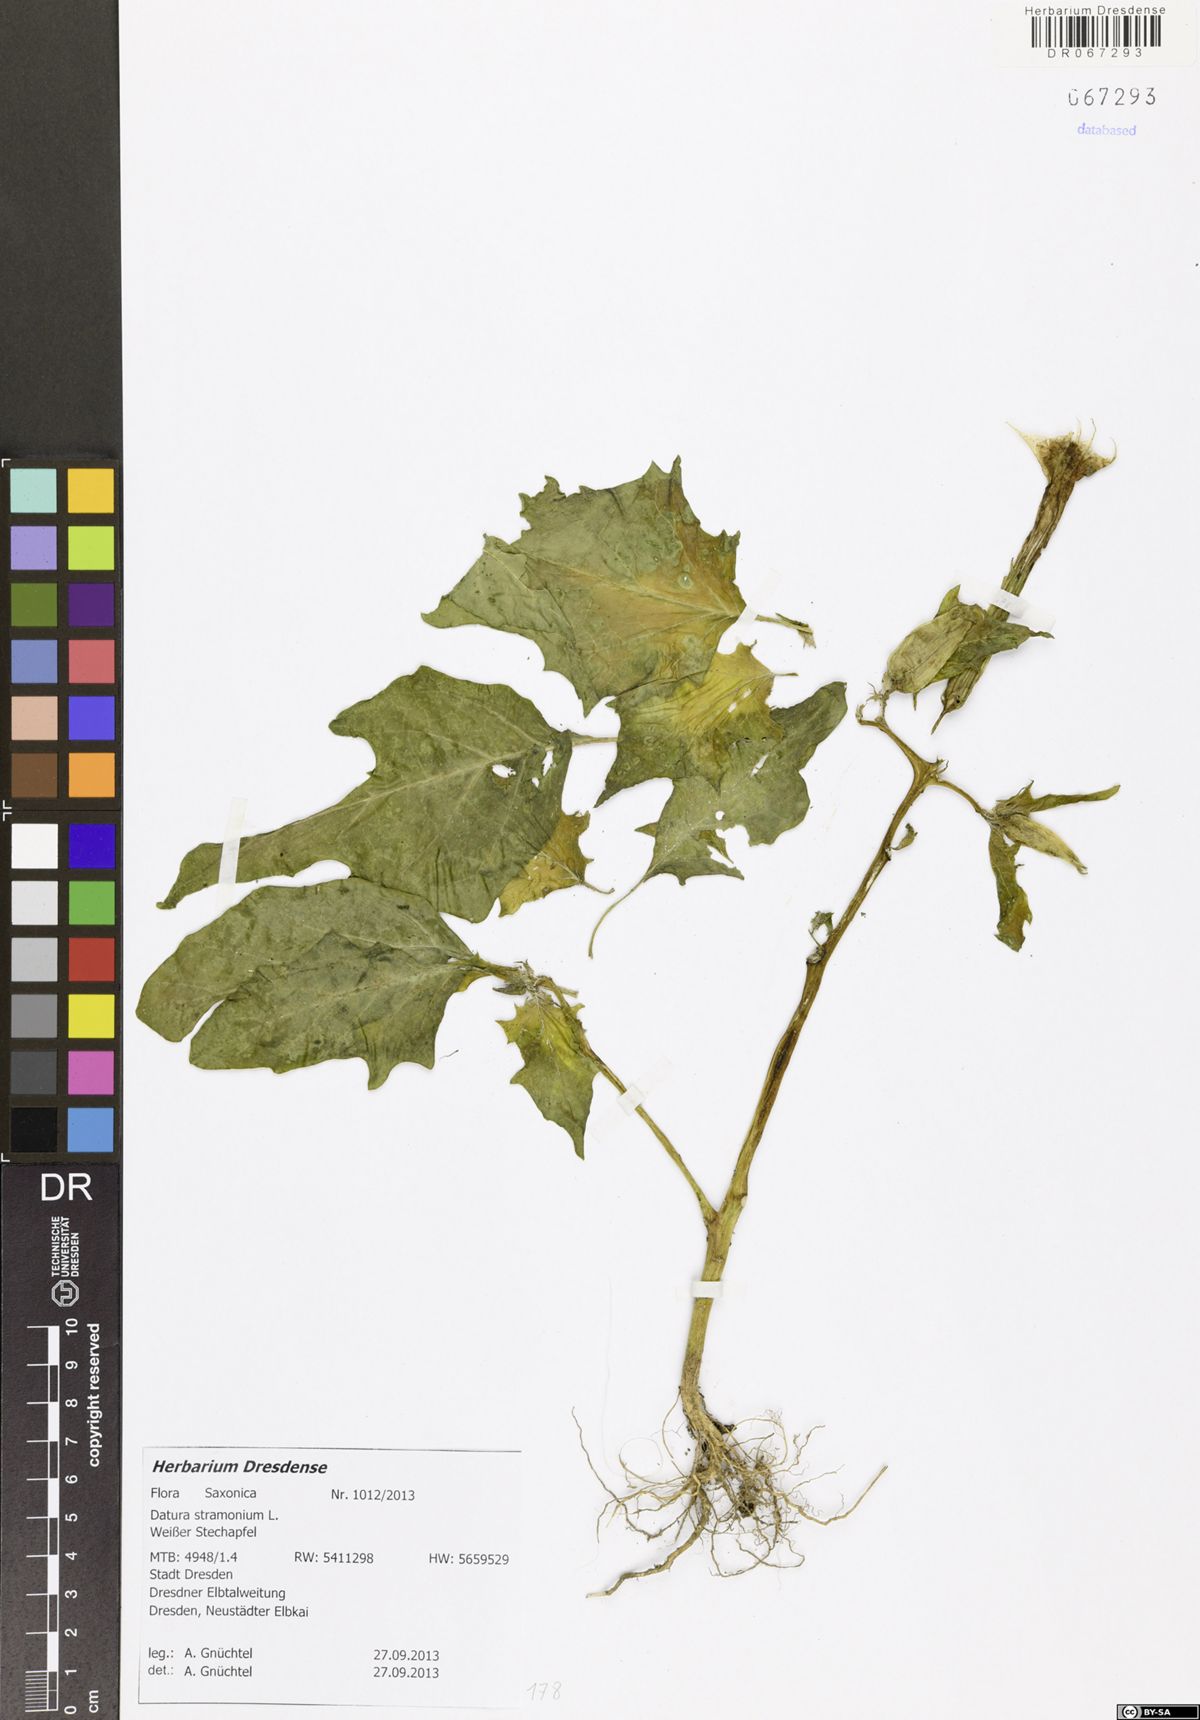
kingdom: Plantae
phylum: Tracheophyta
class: Magnoliopsida
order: Solanales
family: Solanaceae
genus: Datura
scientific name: Datura stramonium
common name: Thorn-apple
